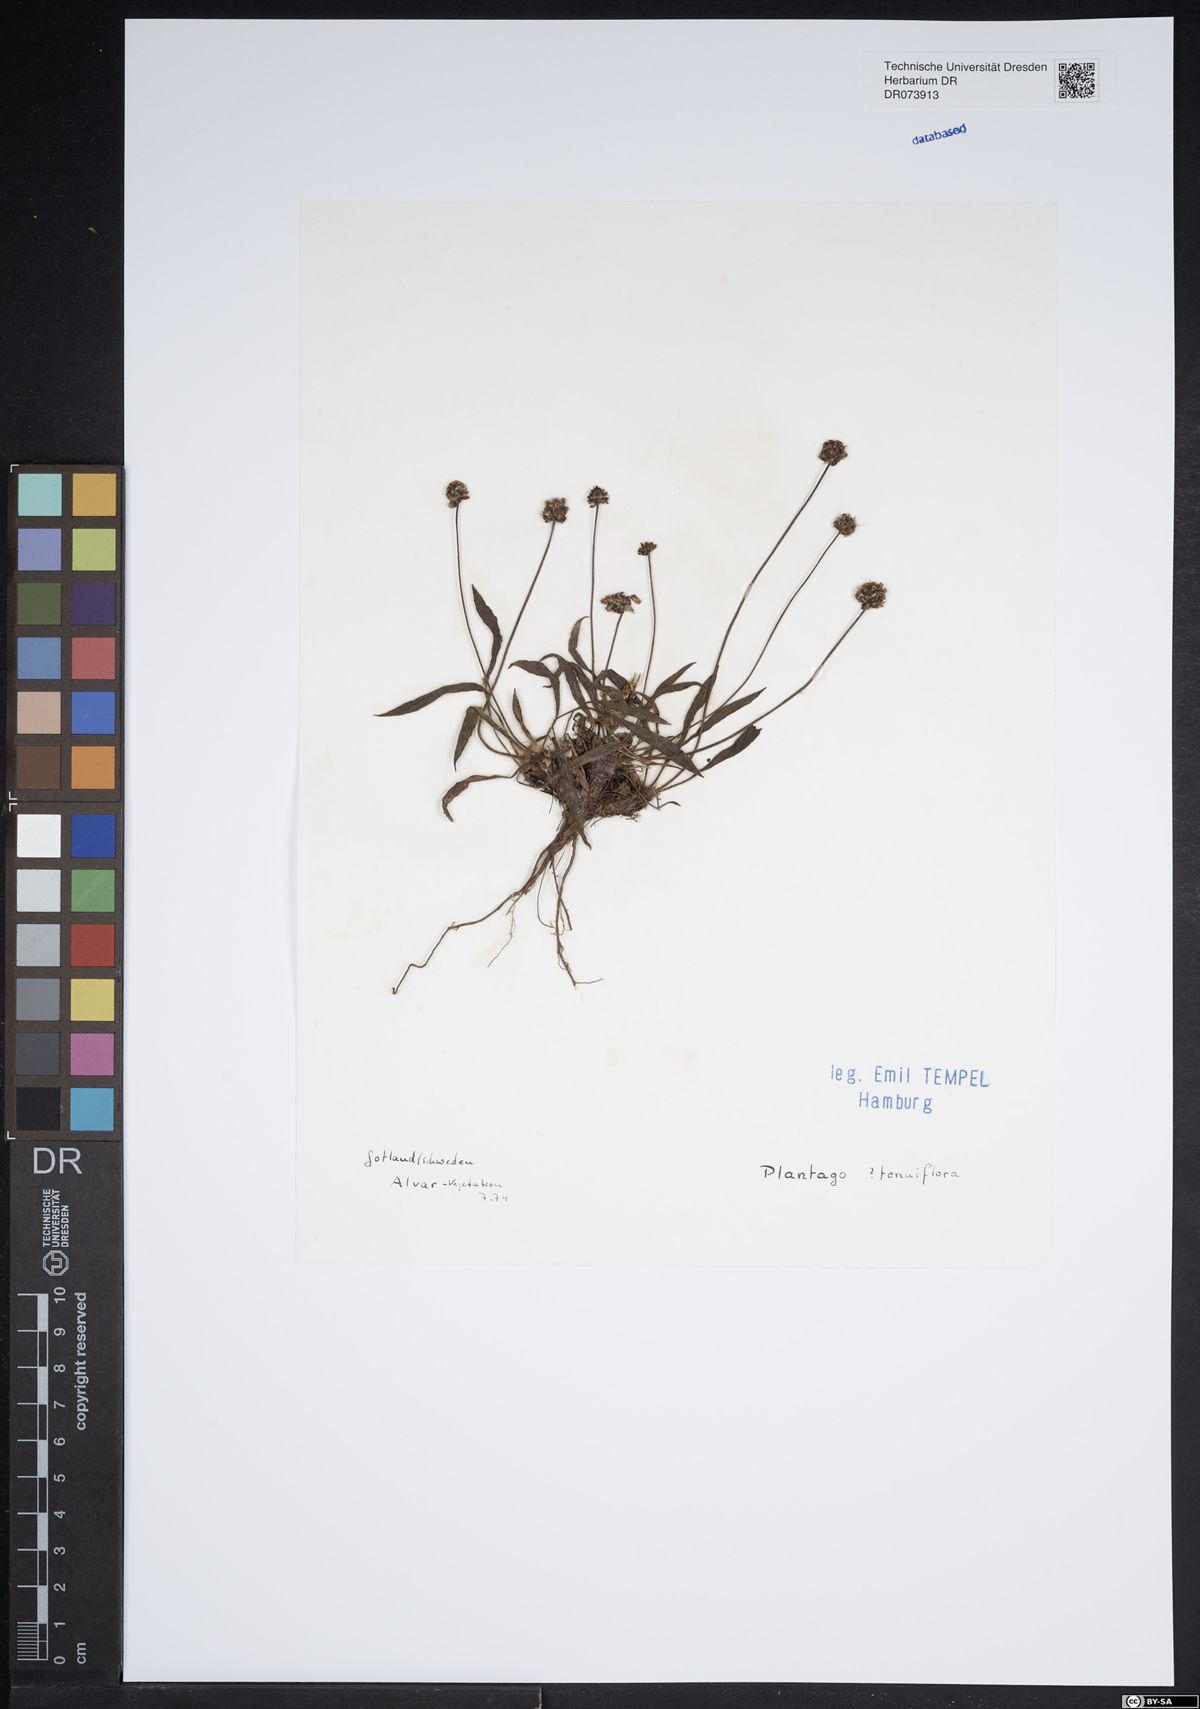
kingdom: Plantae
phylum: Tracheophyta
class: Magnoliopsida
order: Lamiales
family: Plantaginaceae
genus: Plantago
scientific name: Plantago tenuiflora
